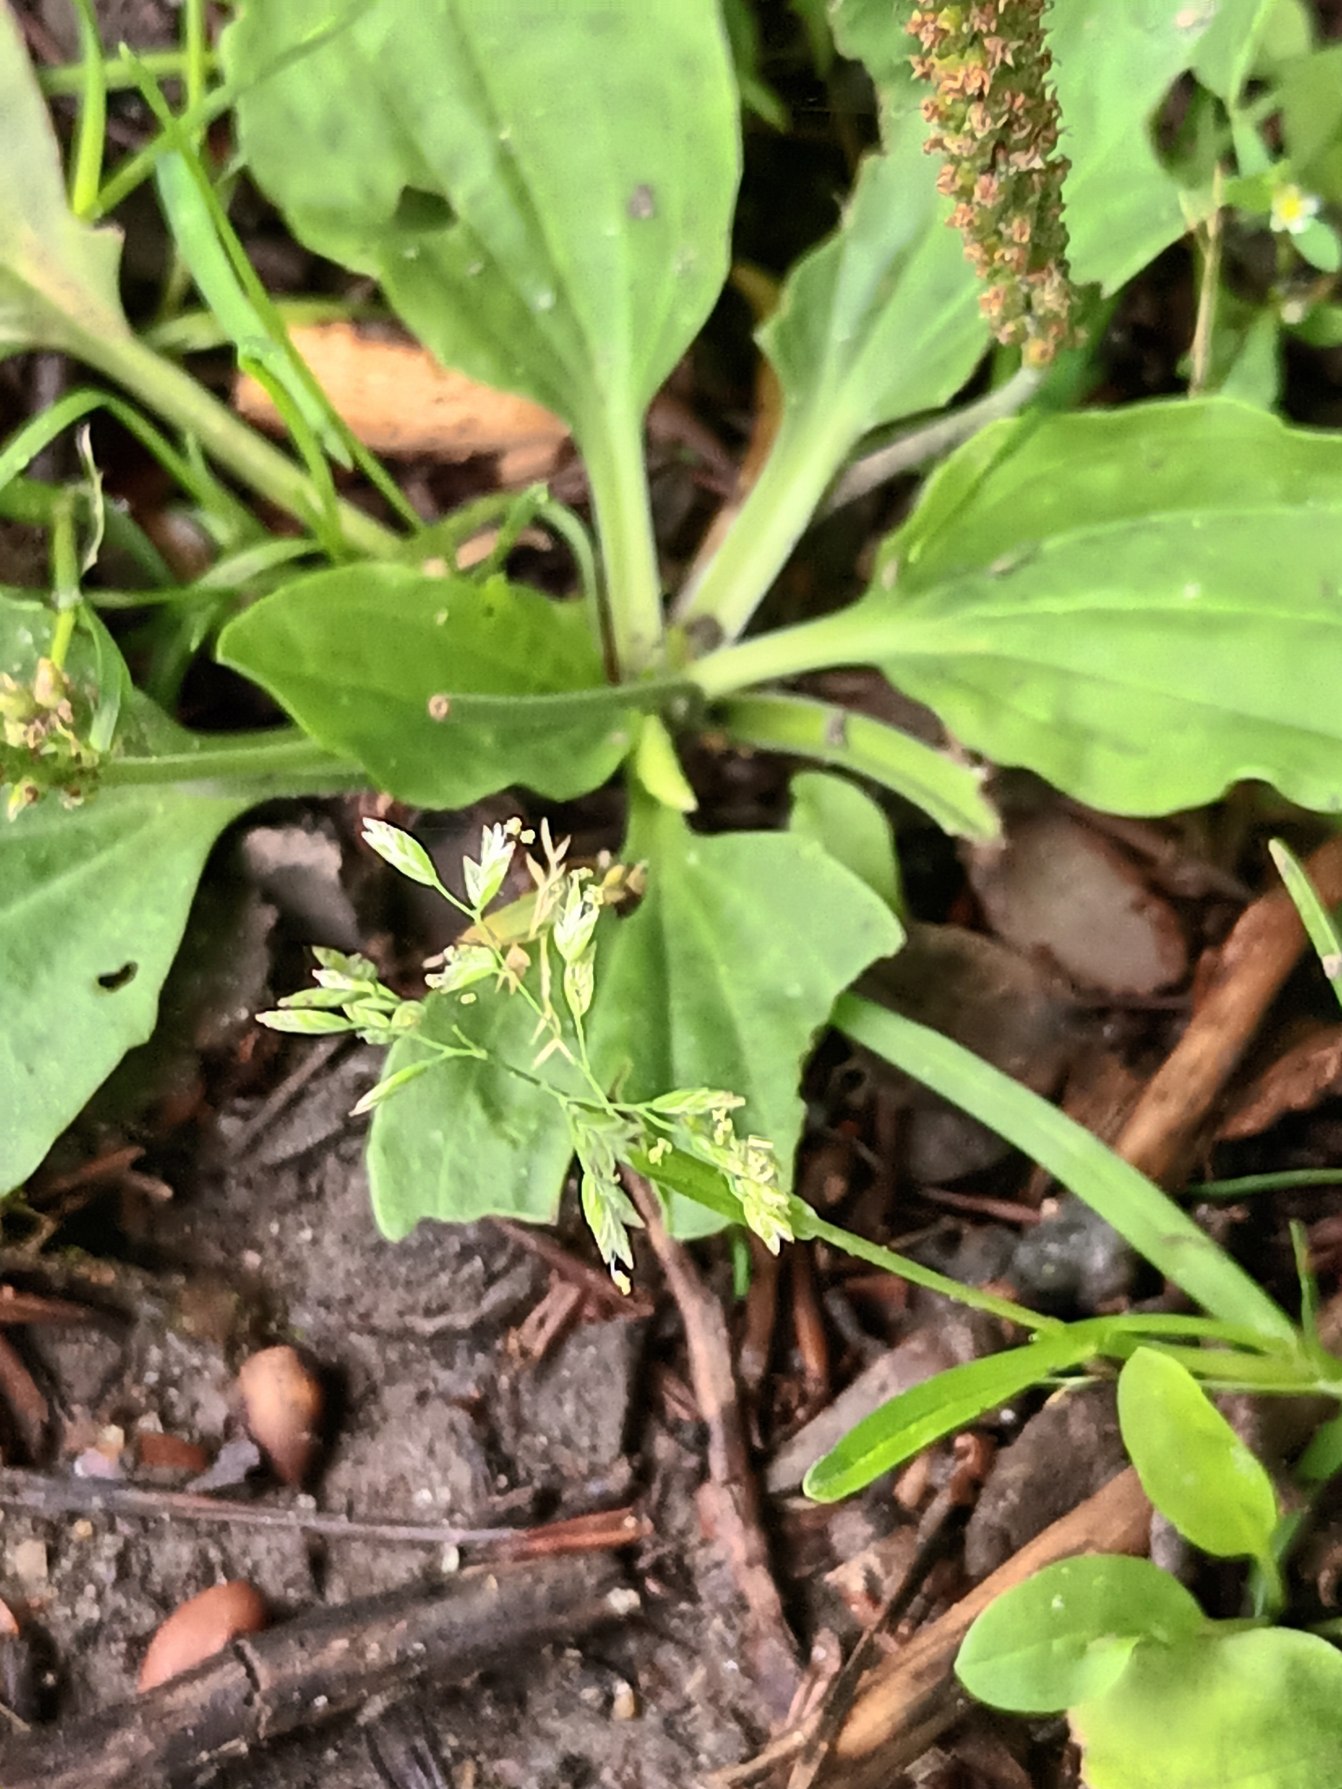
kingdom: Plantae
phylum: Tracheophyta
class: Liliopsida
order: Poales
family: Poaceae
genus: Poa
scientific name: Poa annua
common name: Enårig rapgræs
